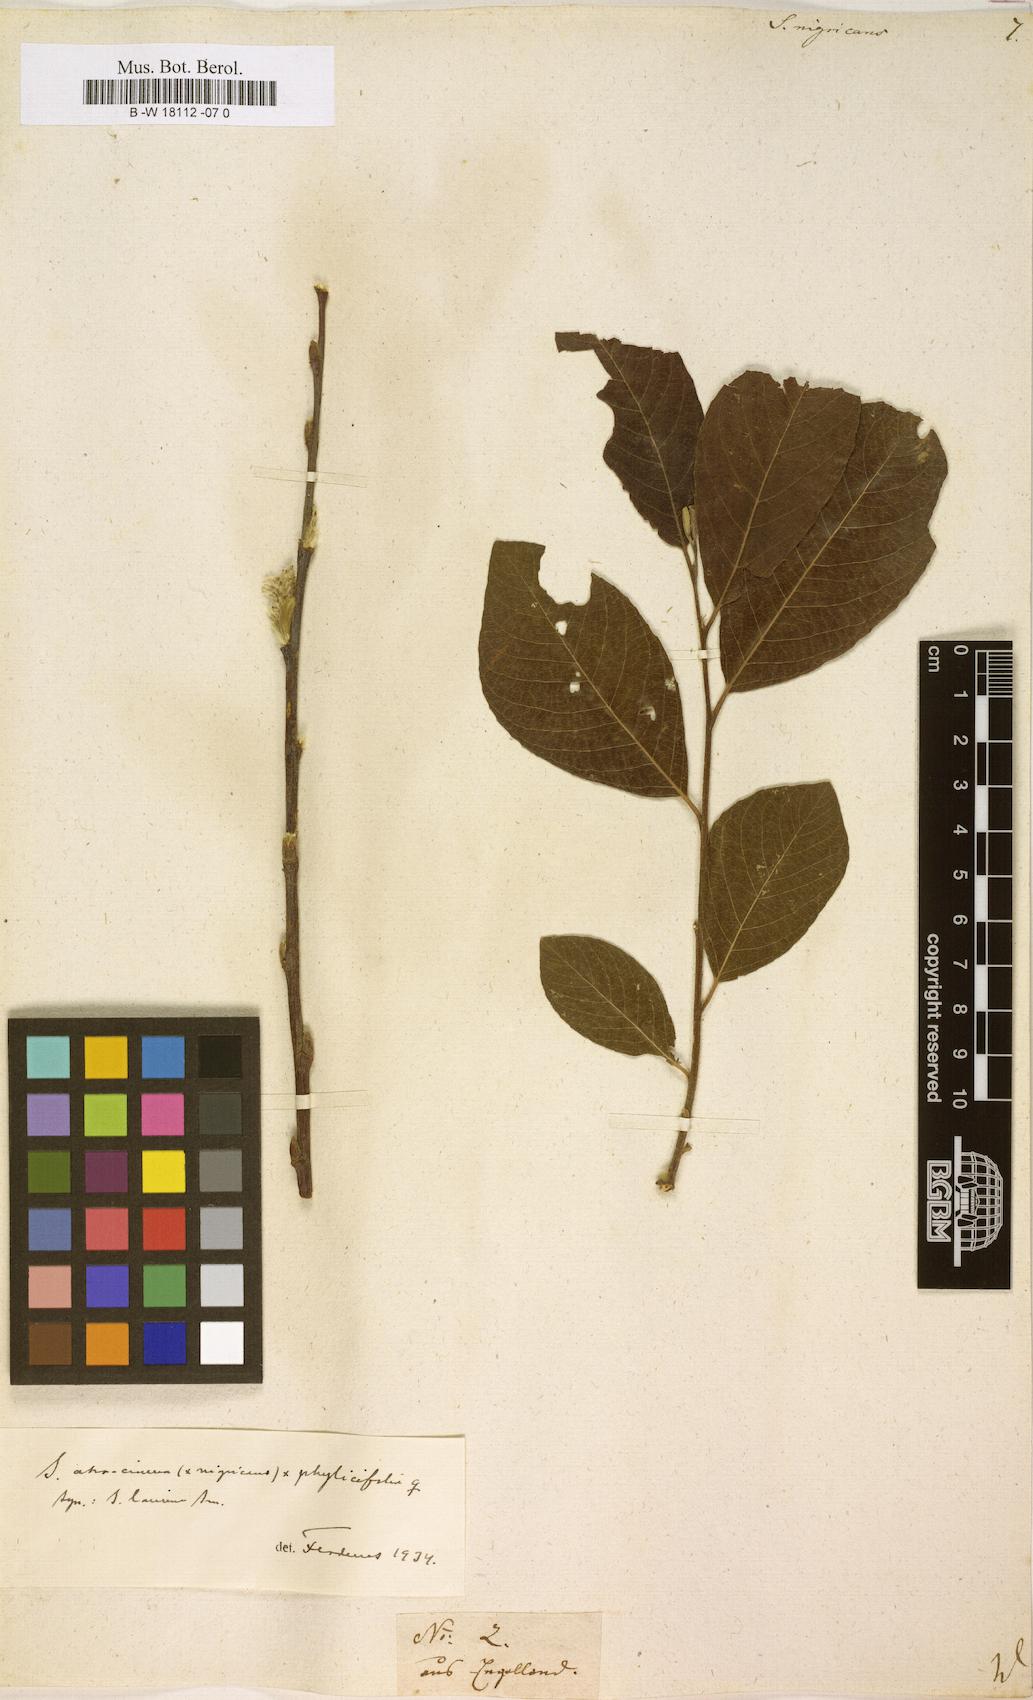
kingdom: Plantae
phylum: Tracheophyta
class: Magnoliopsida
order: Malpighiales
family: Salicaceae
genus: Salix
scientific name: Salix myrsinifolia
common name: Dark-leaved willow
